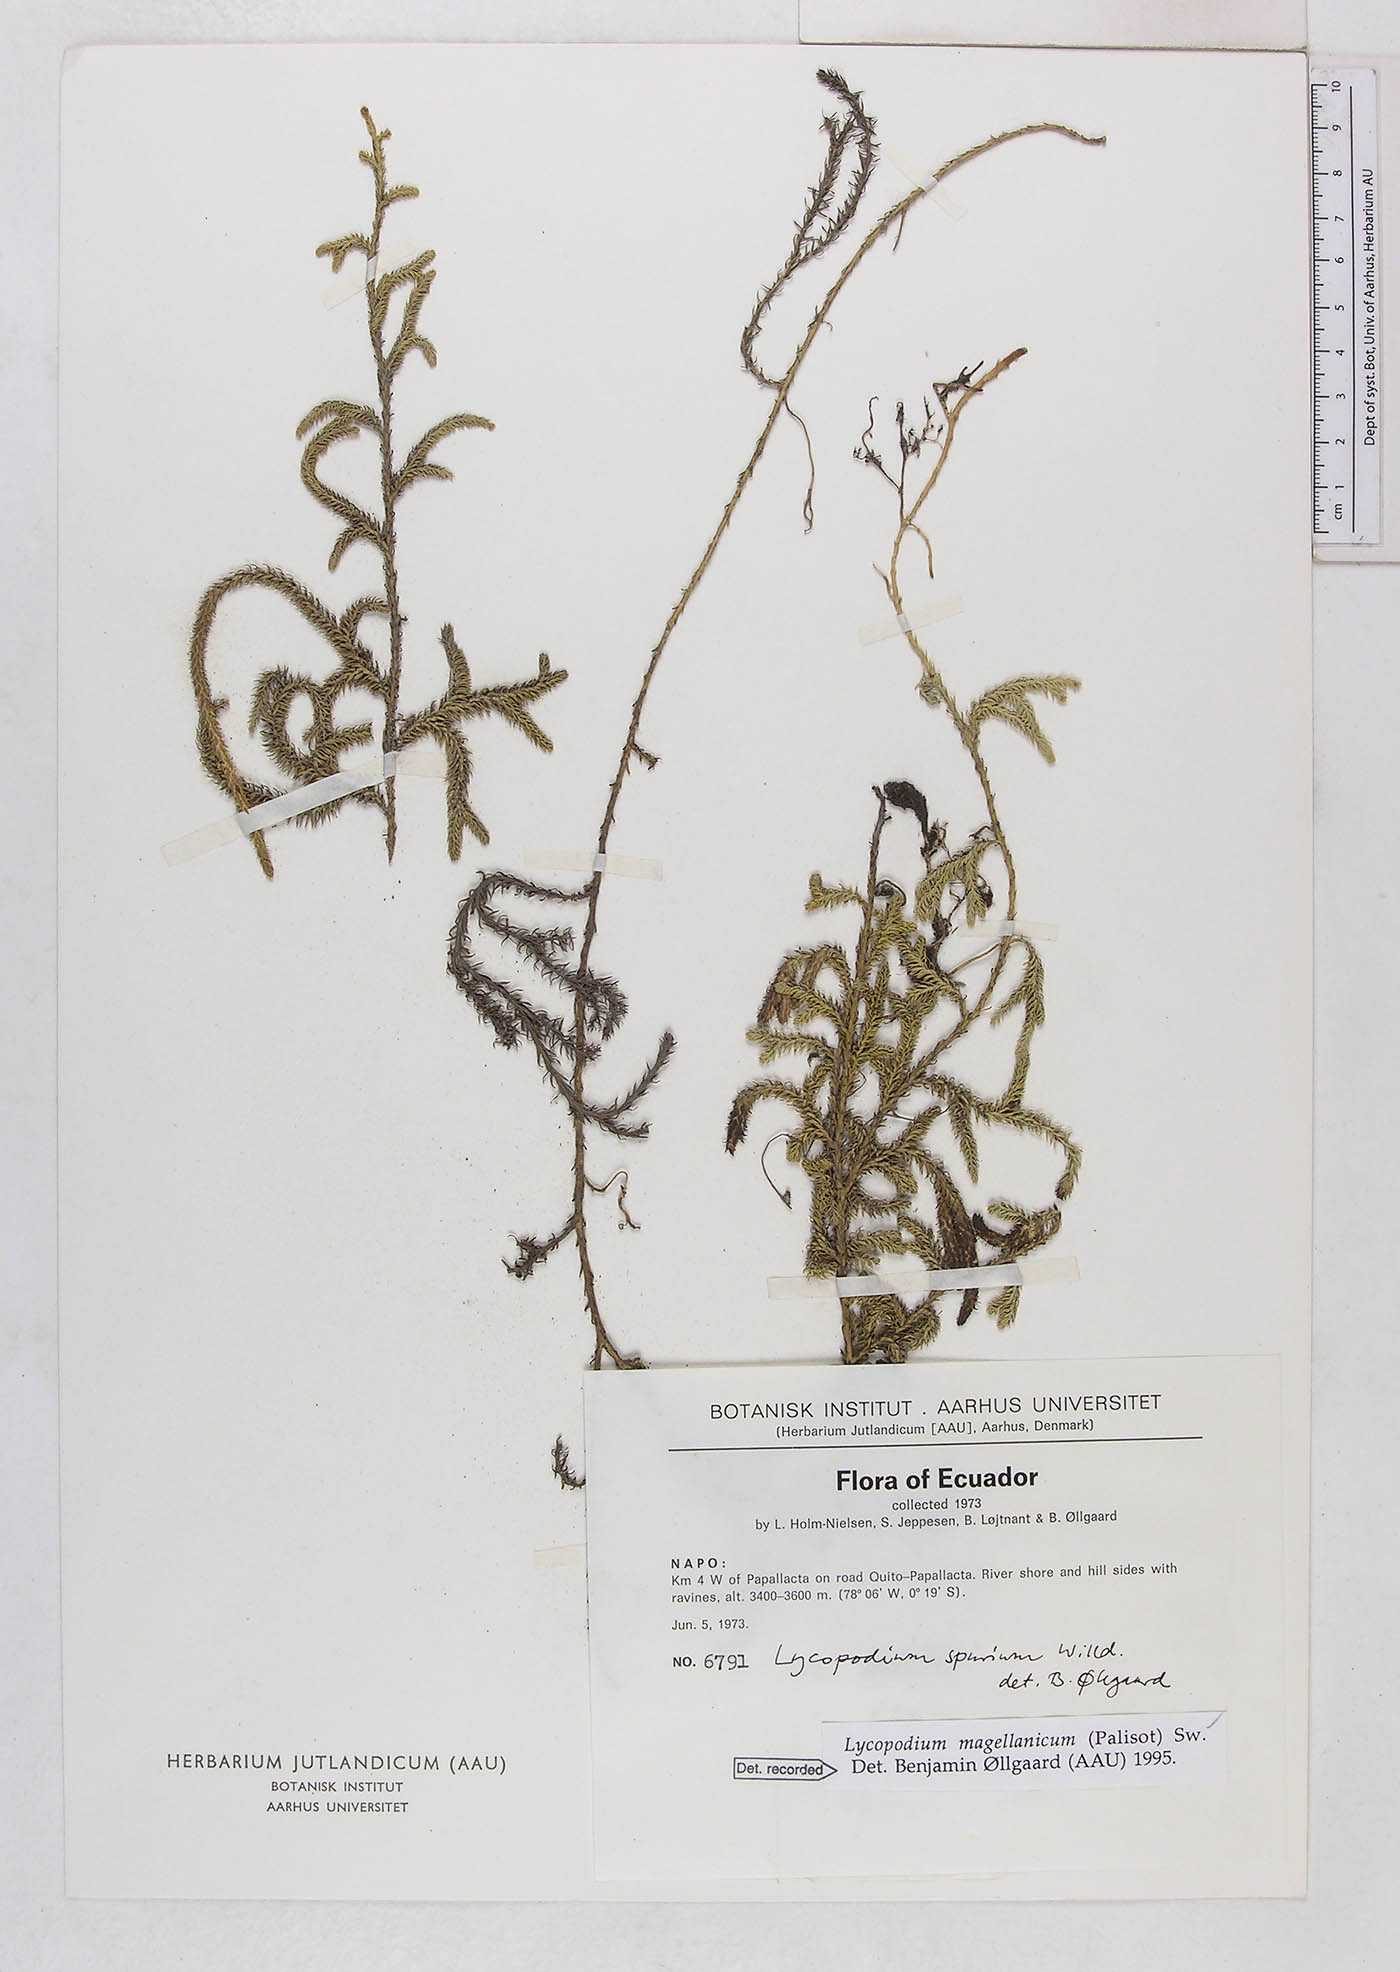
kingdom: Plantae
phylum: Tracheophyta
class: Lycopodiopsida
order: Lycopodiales
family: Lycopodiaceae
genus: Austrolycopodium
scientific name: Austrolycopodium magellanicum
